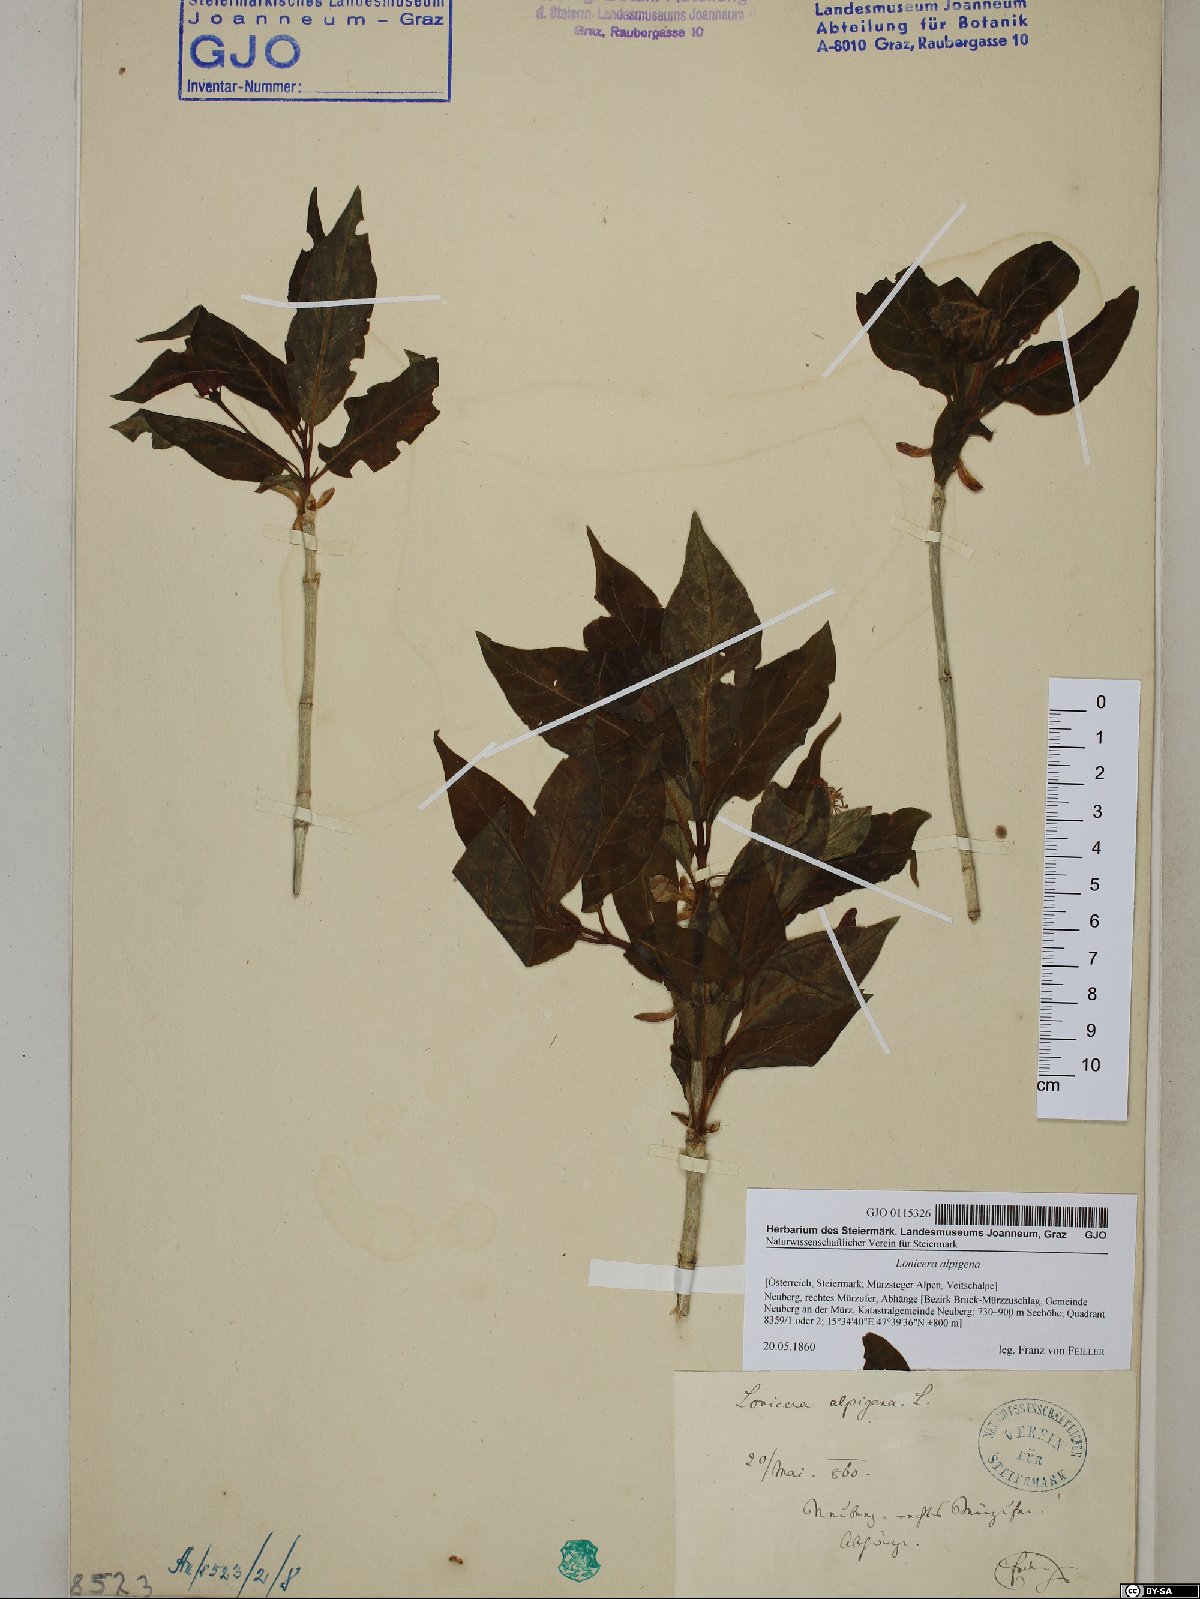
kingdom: Plantae
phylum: Tracheophyta
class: Magnoliopsida
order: Dipsacales
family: Caprifoliaceae
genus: Lonicera
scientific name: Lonicera alpigena
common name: Alpine honeysuckle
